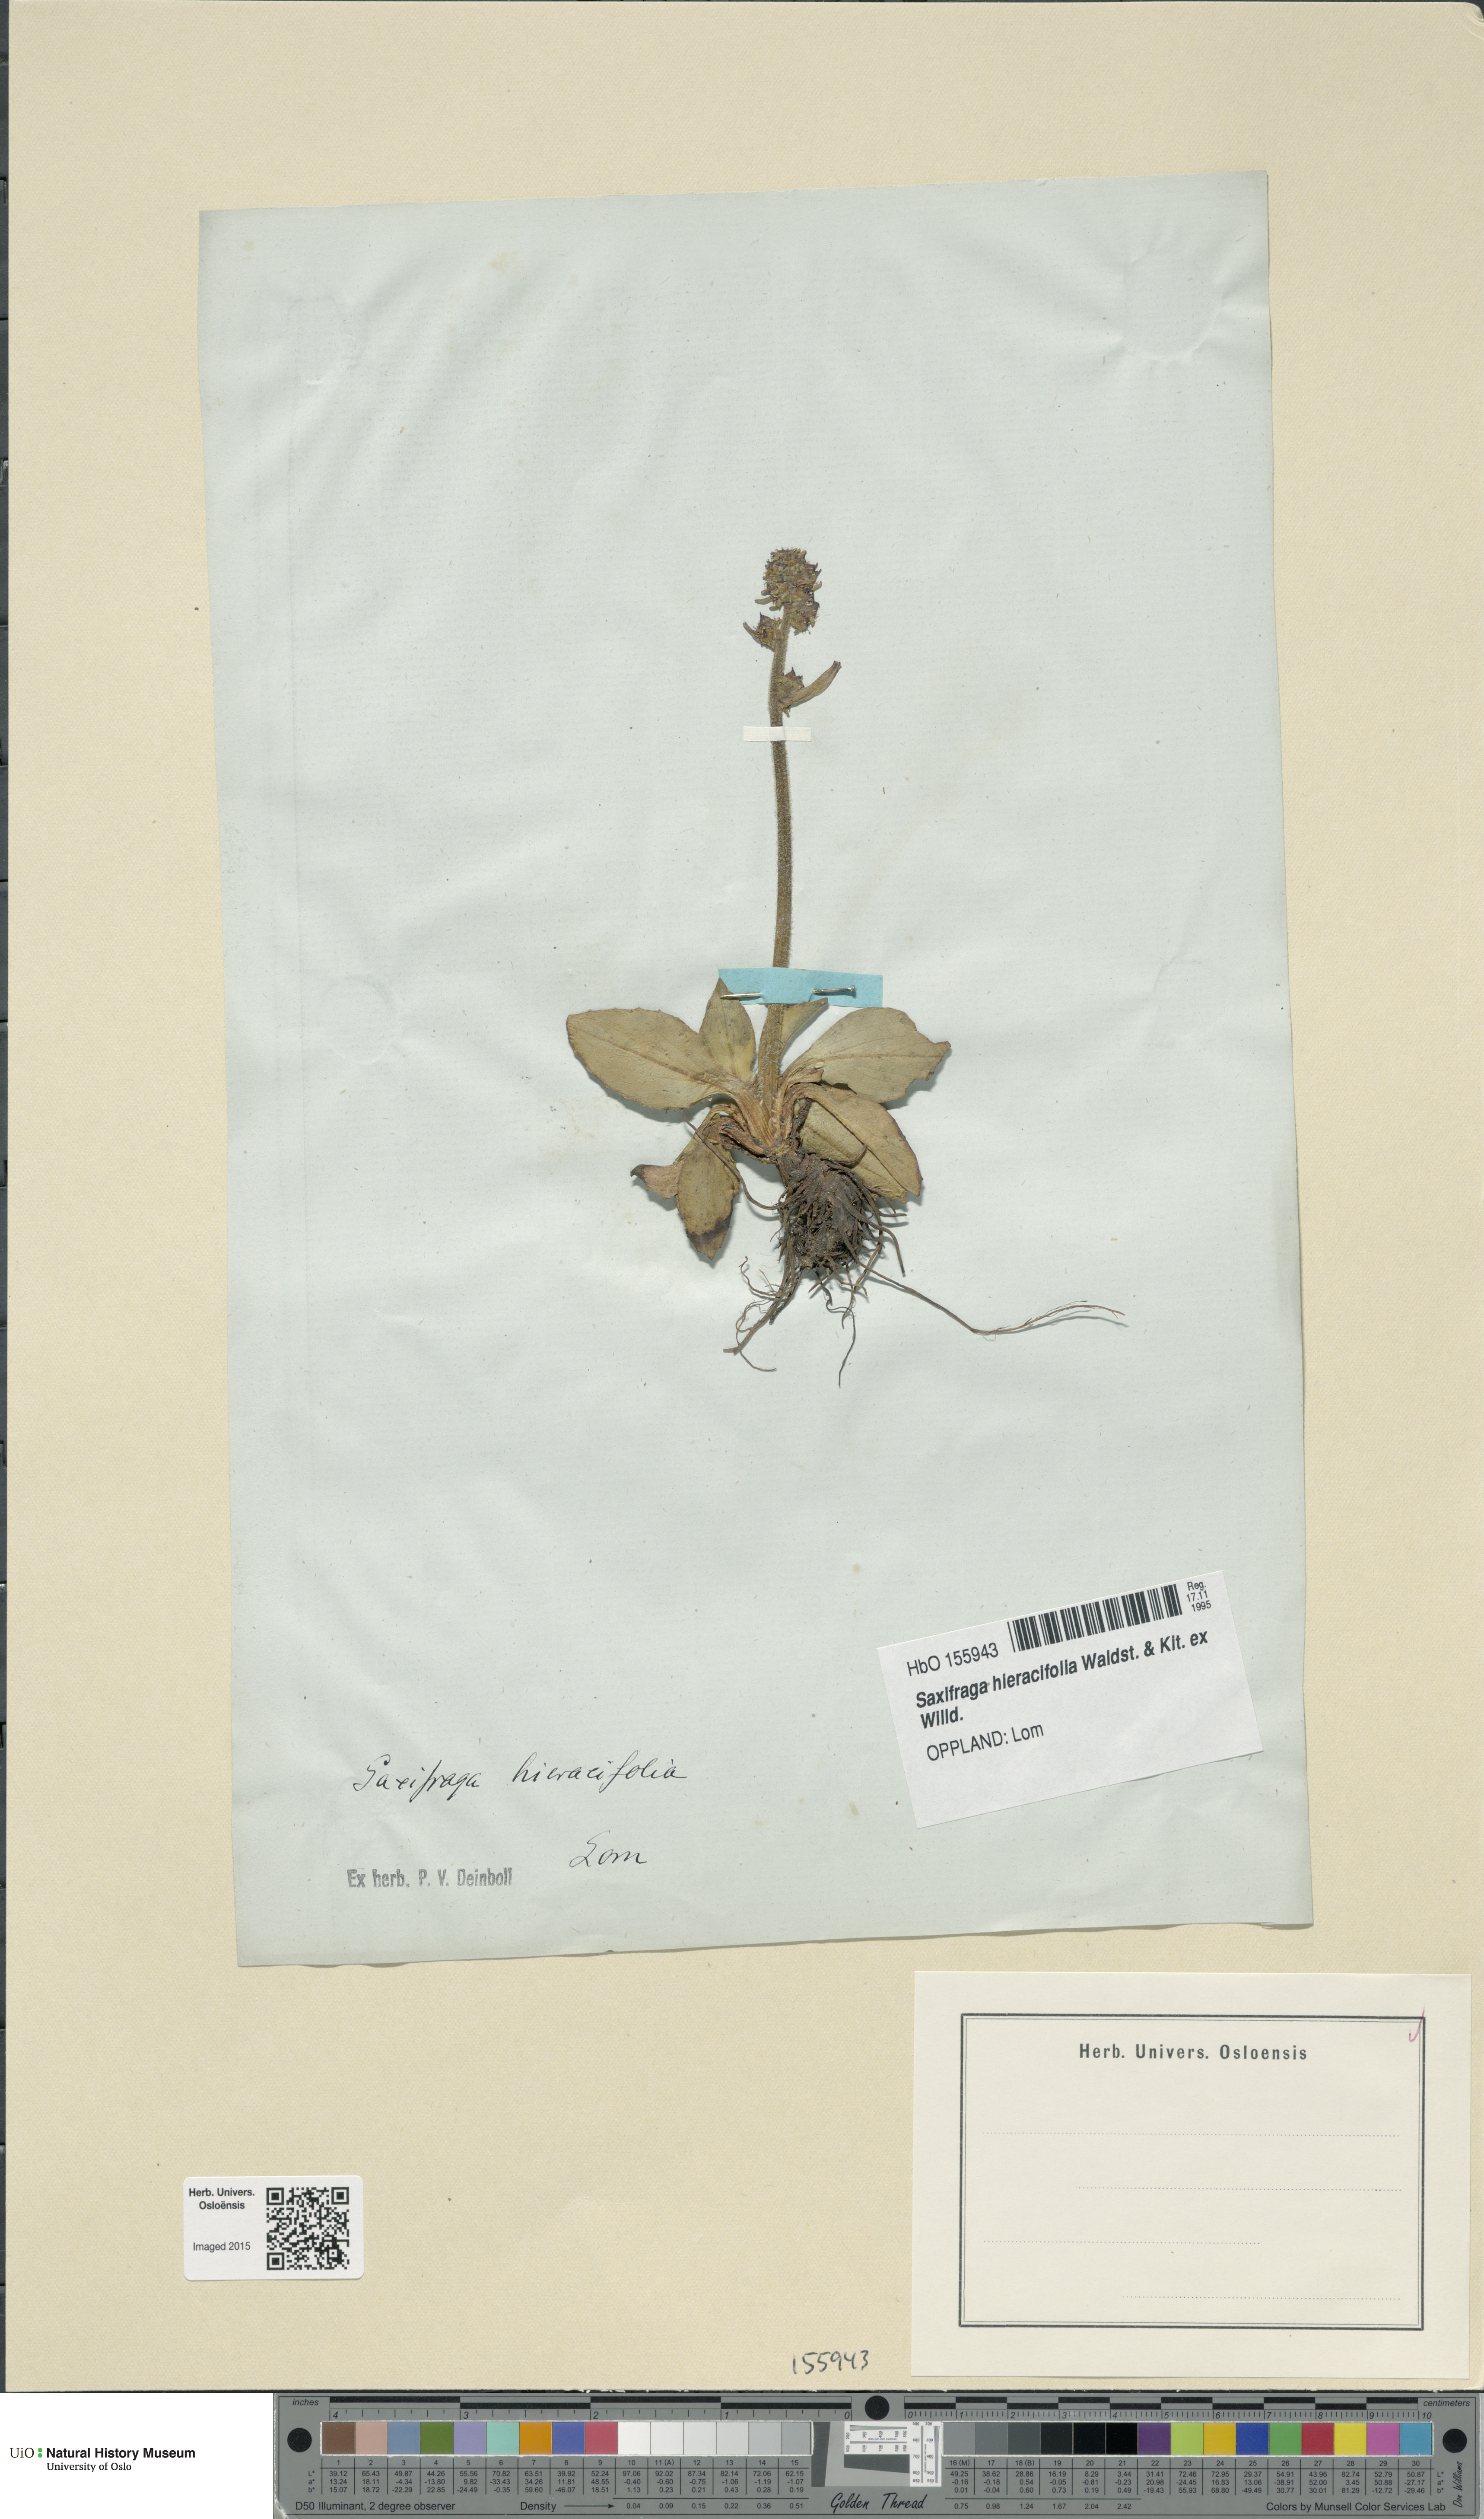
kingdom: Plantae
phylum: Tracheophyta
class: Magnoliopsida
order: Saxifragales
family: Saxifragaceae
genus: Micranthes
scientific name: Micranthes hieraciifolia
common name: Hawkweed-leaved saxifrage
